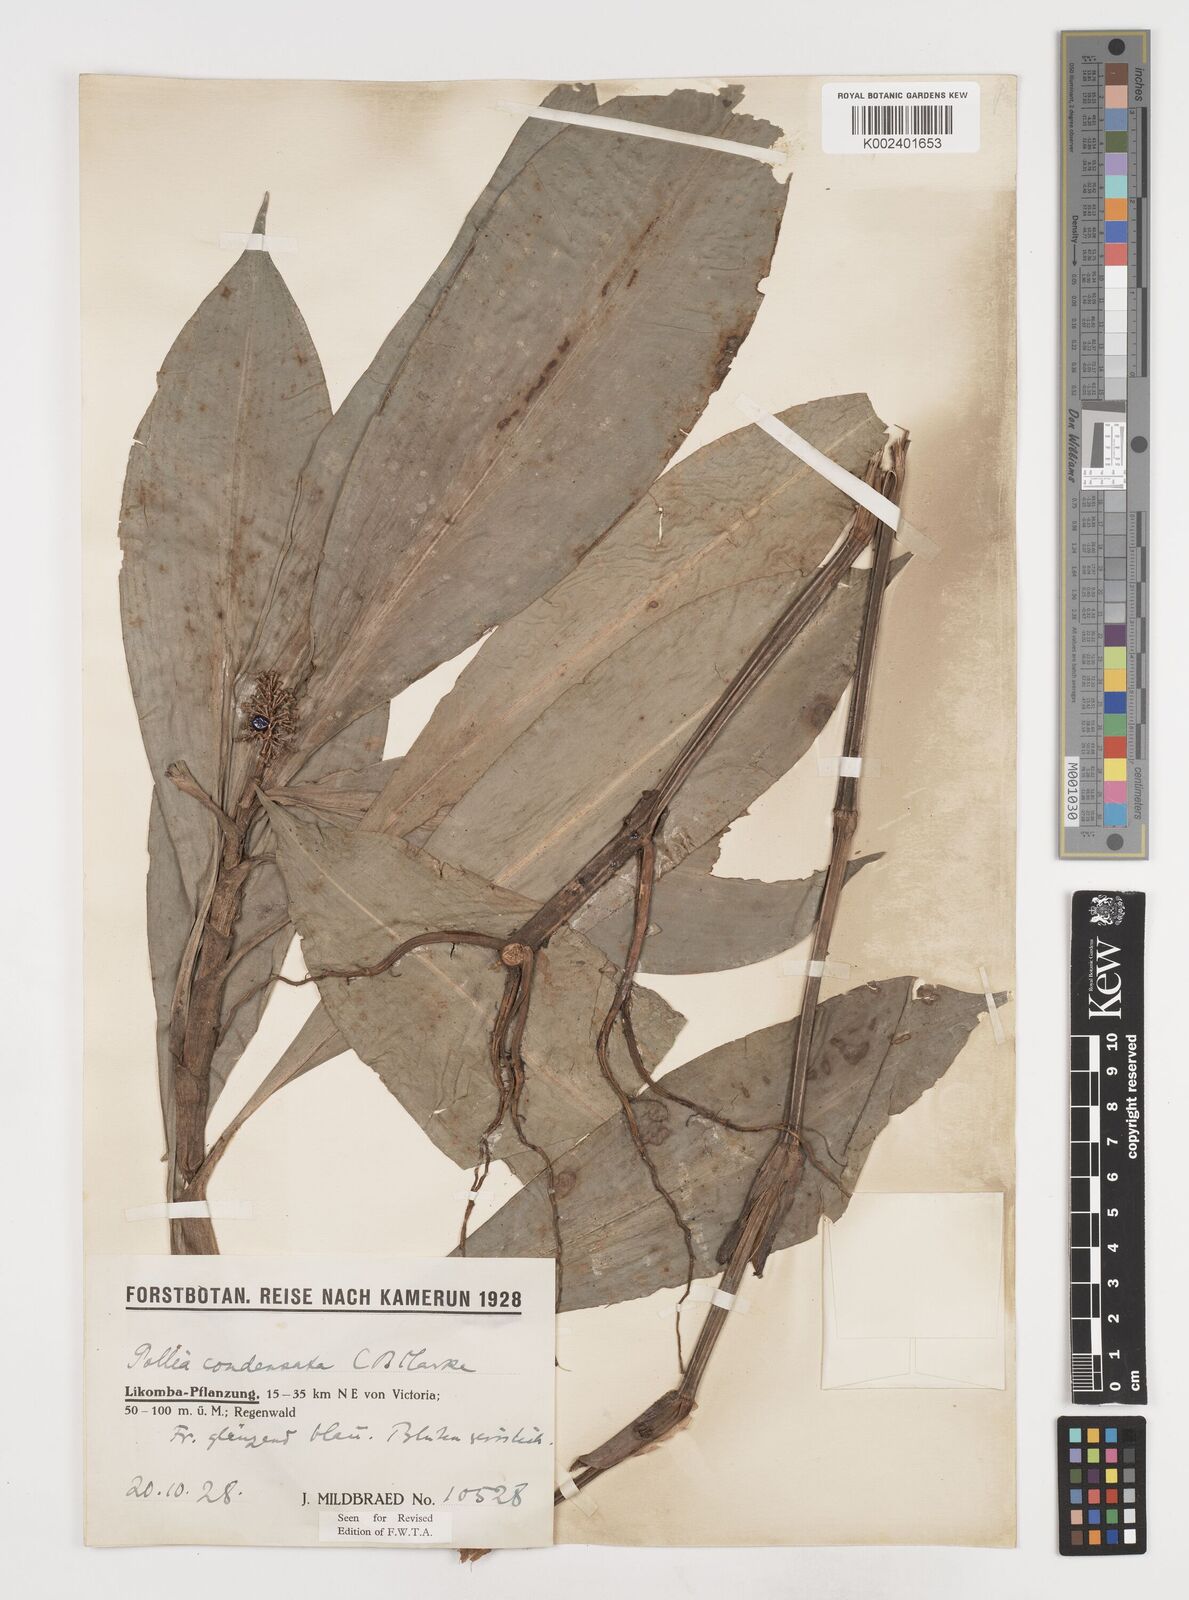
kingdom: Plantae
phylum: Tracheophyta
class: Liliopsida
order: Commelinales
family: Commelinaceae
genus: Pollia
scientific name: Pollia condensata
